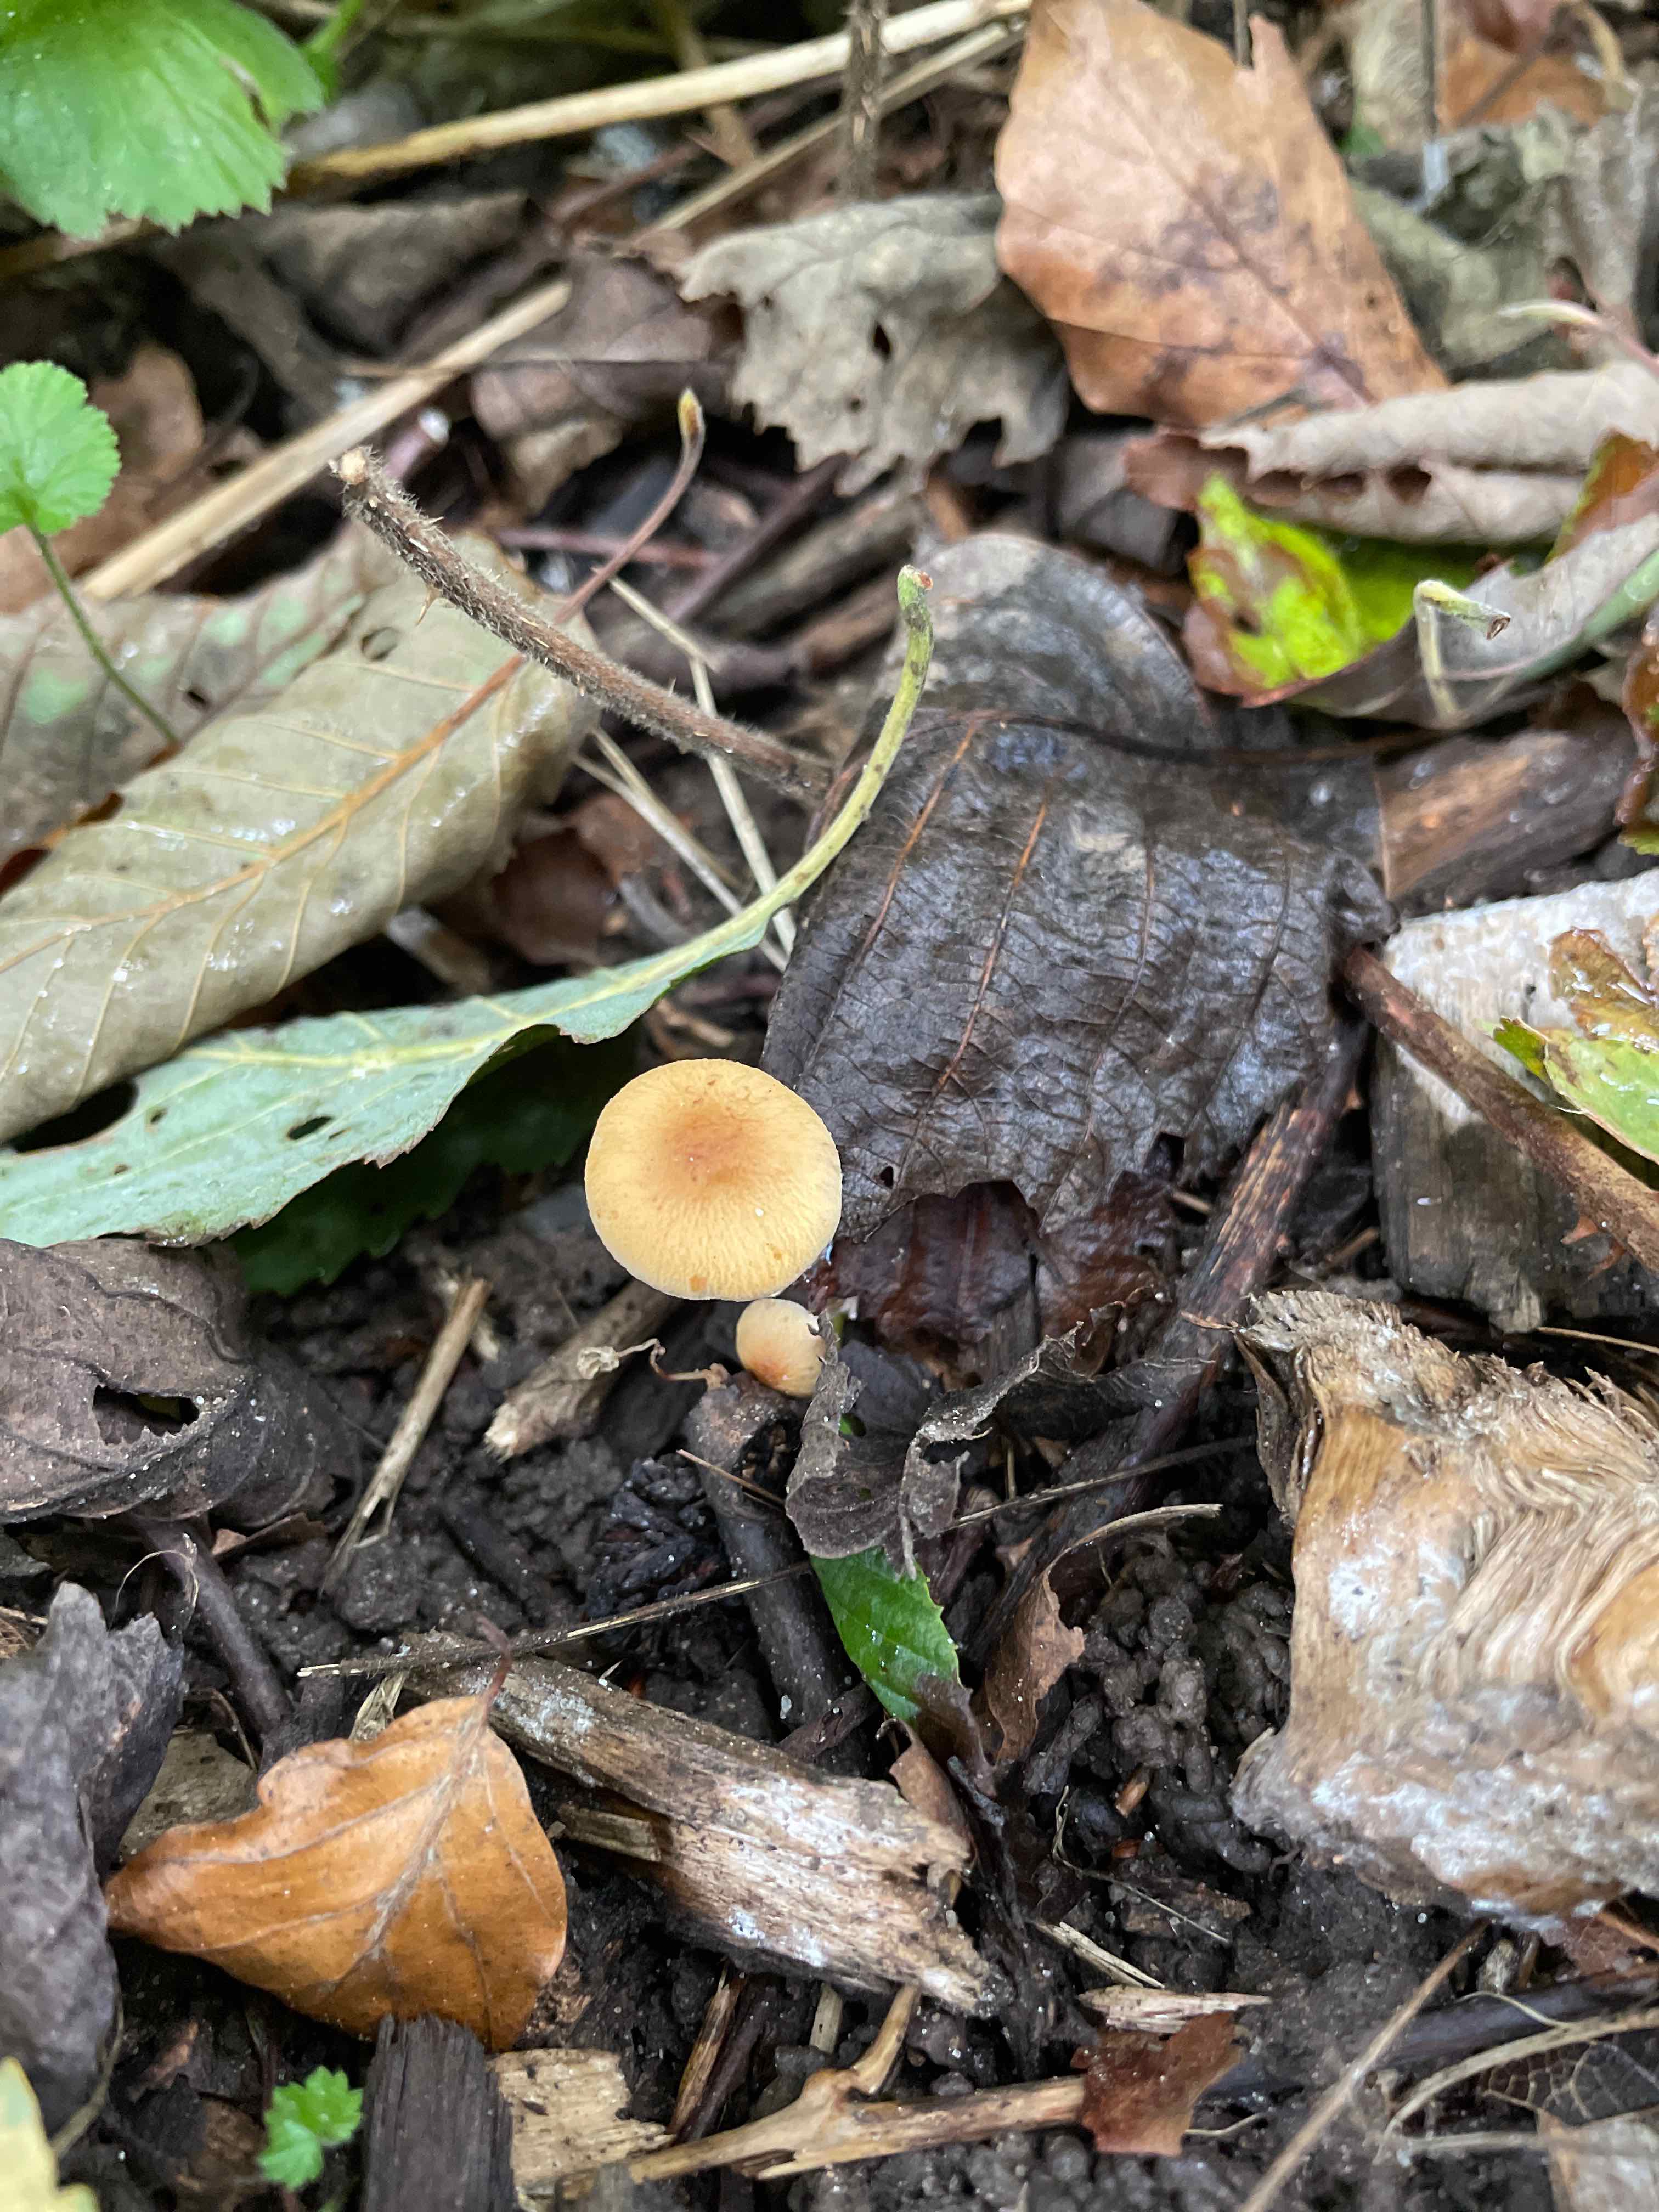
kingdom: Fungi
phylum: Basidiomycota
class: Agaricomycetes
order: Agaricales
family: Bolbitiaceae
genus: Pholiotina
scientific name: Pholiotina
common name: dansehat
